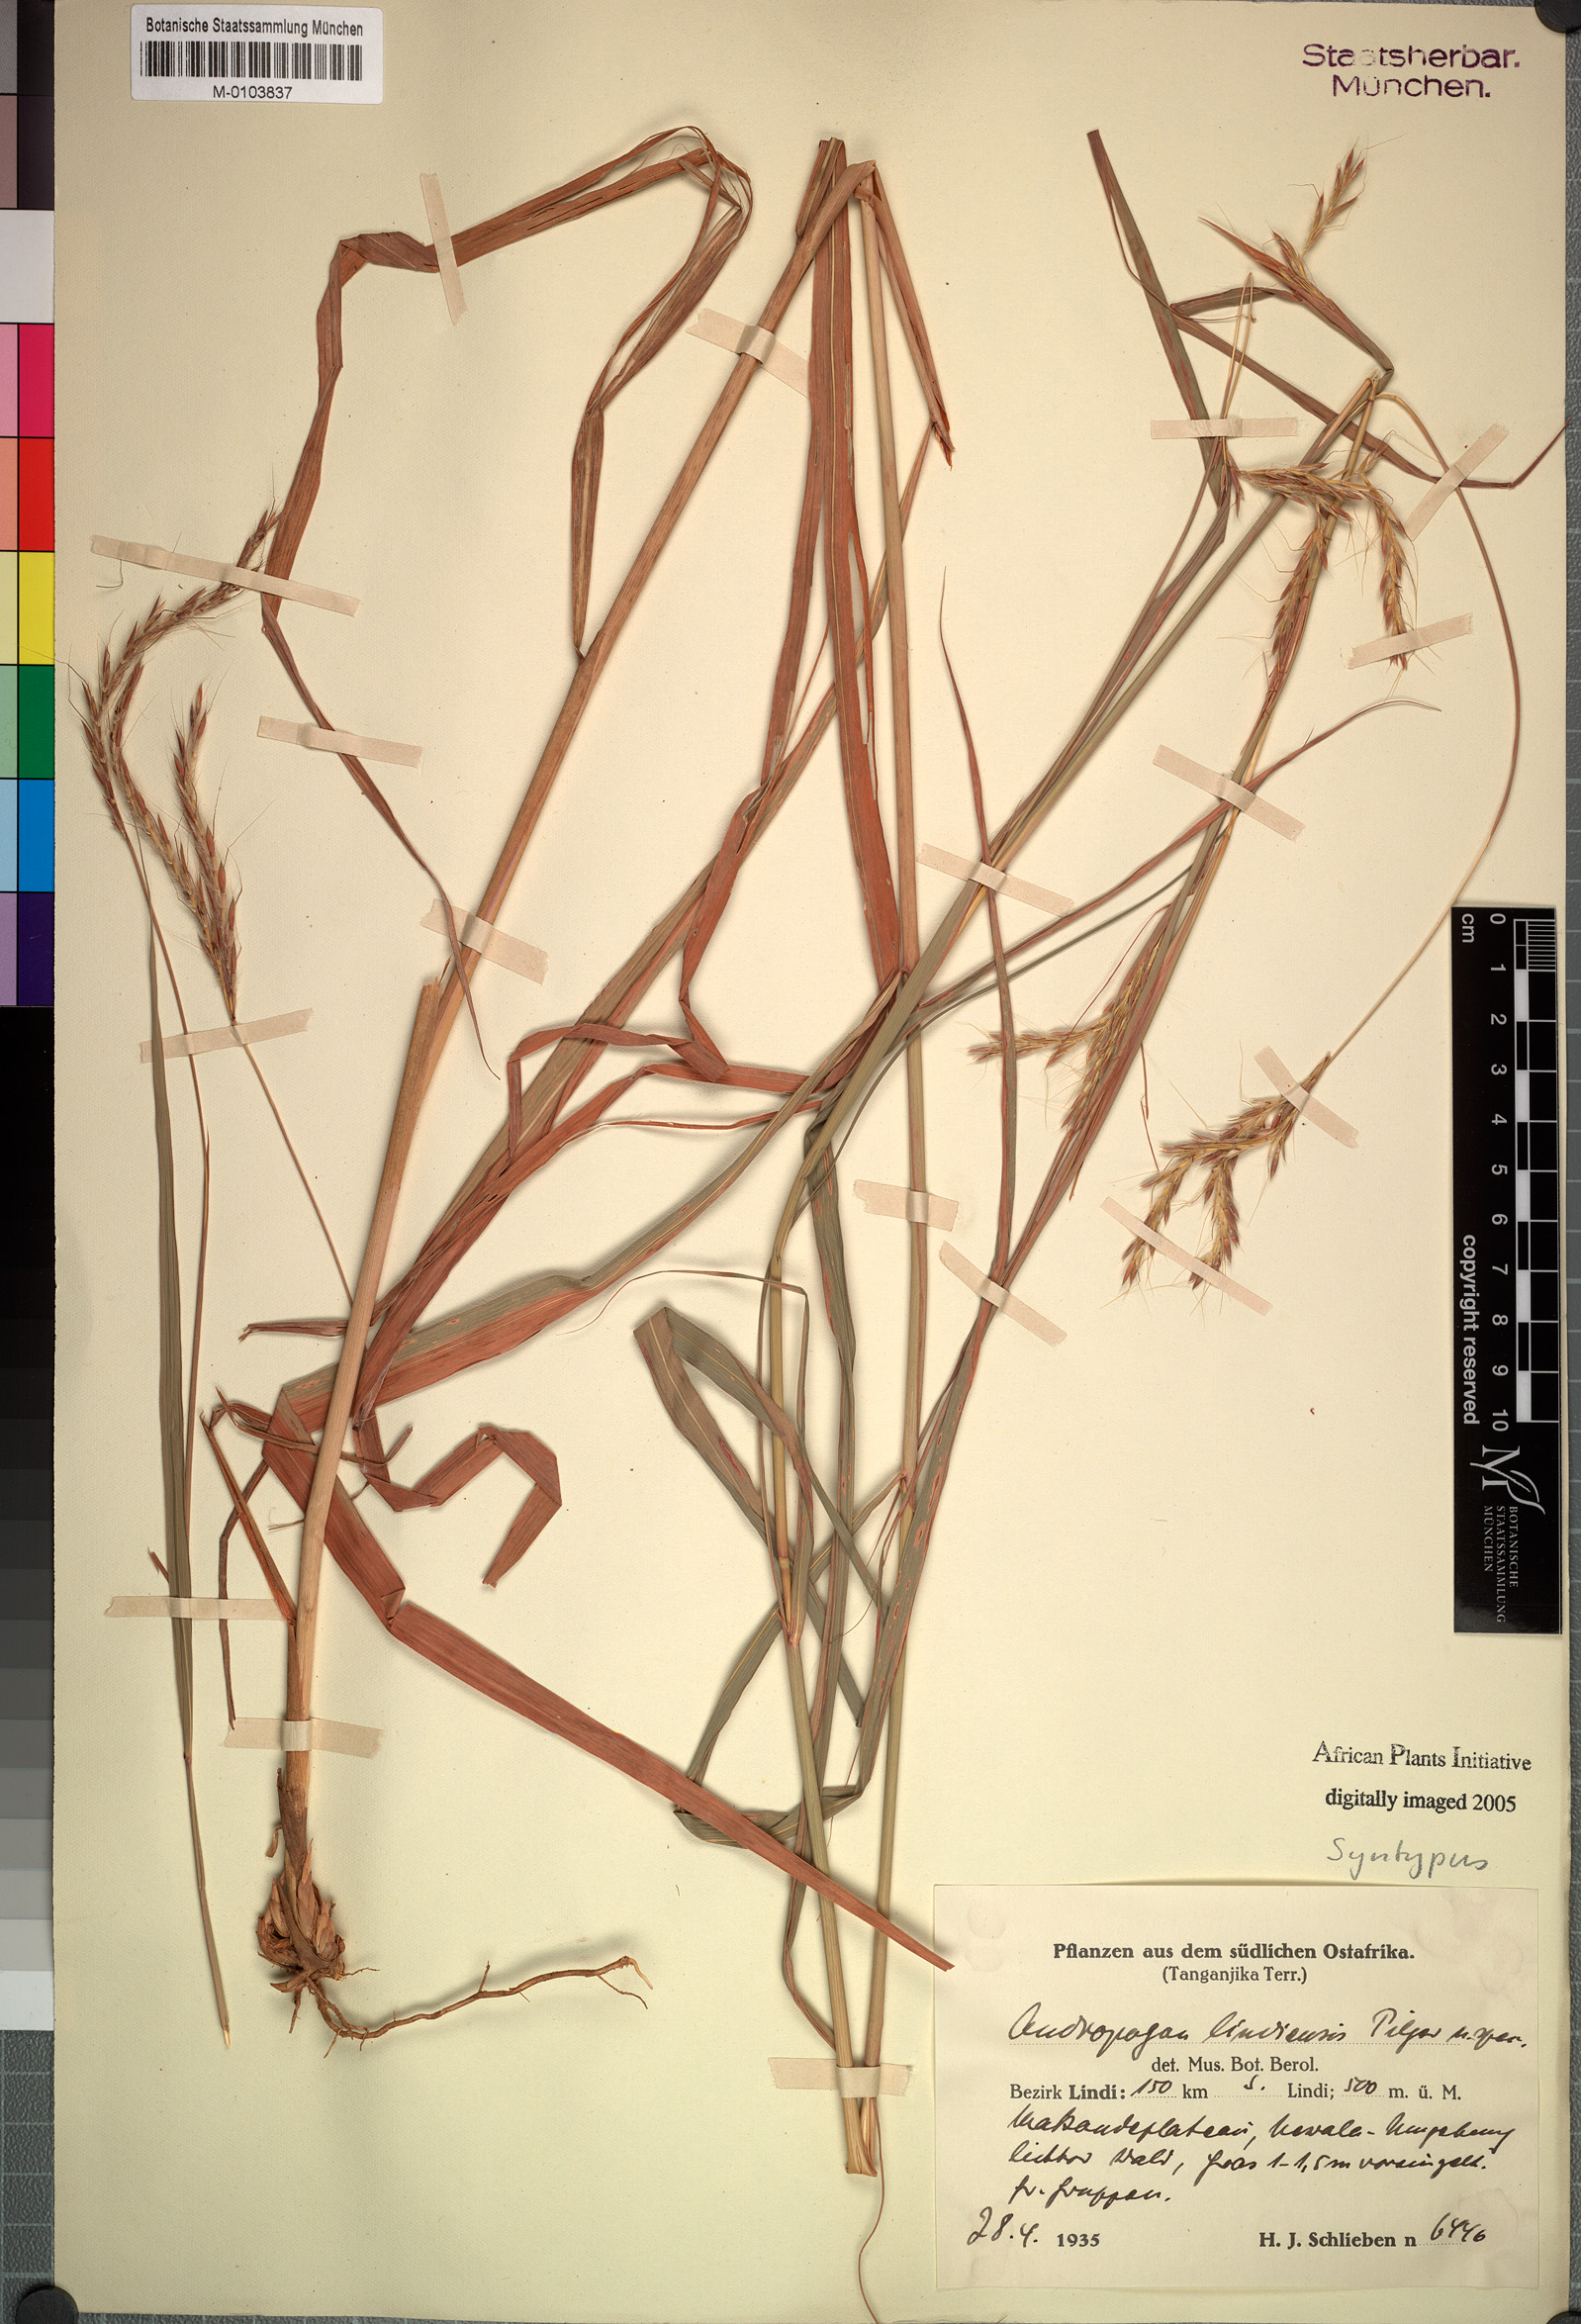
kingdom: Plantae
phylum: Tracheophyta
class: Liliopsida
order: Poales
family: Poaceae
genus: Andropogon
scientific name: Andropogon chinensis
